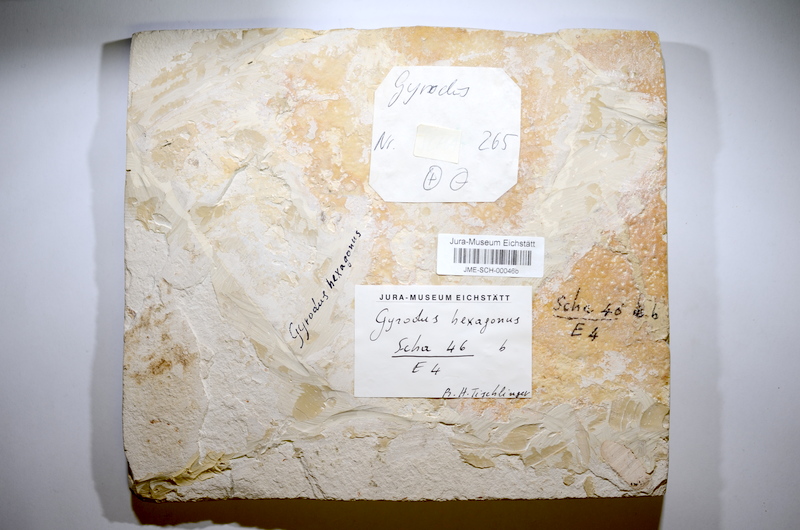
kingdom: Animalia
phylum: Chordata
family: Gyrodontidae
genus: Gyrodus
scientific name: Gyrodus hexagonus
